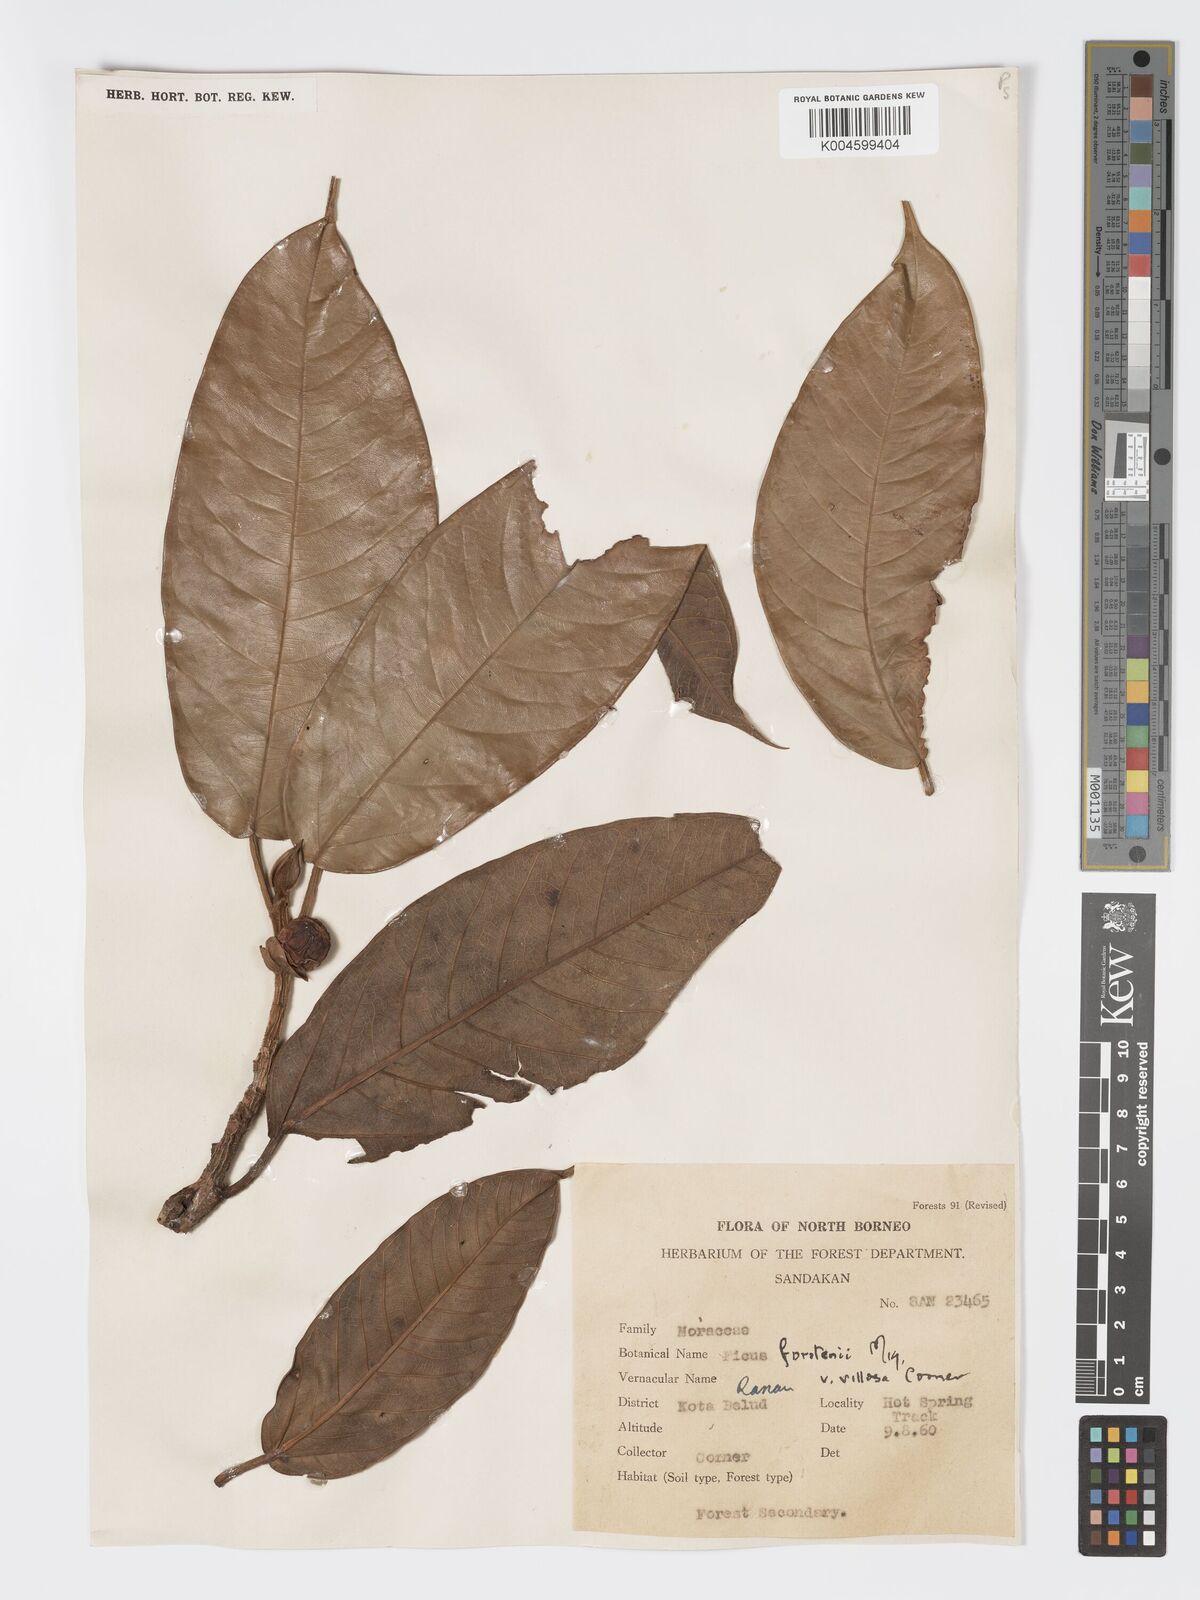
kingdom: Plantae
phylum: Tracheophyta
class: Magnoliopsida
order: Rosales
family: Moraceae
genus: Ficus
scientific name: Ficus forstenii
